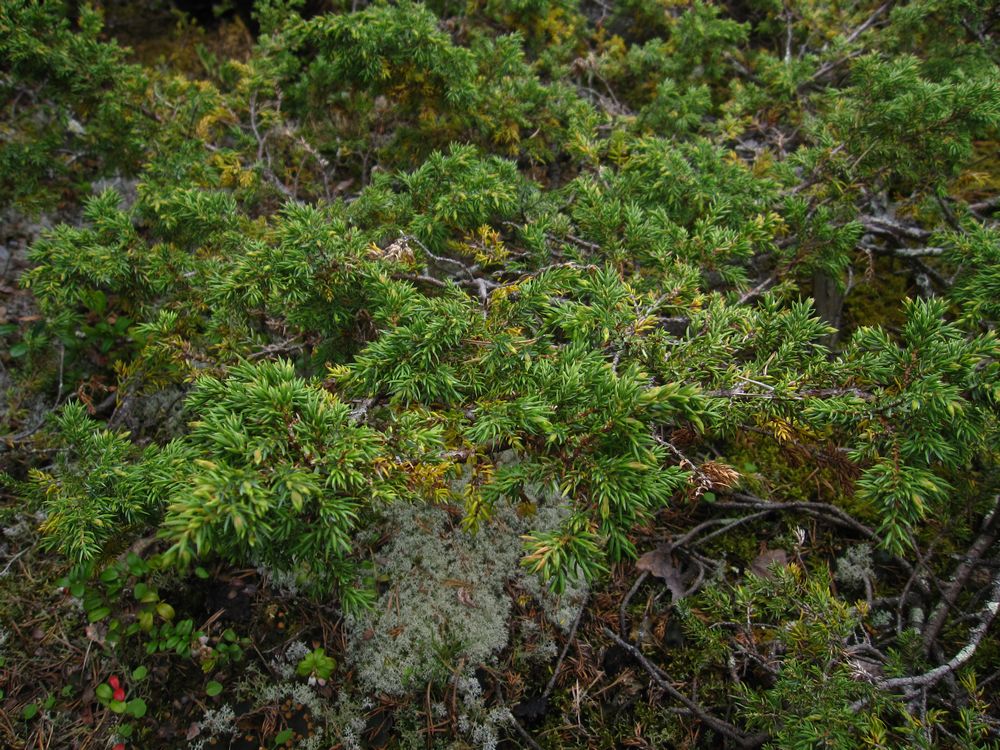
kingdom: Plantae
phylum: Tracheophyta
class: Pinopsida
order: Pinales
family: Cupressaceae
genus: Juniperus
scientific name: Juniperus communis
